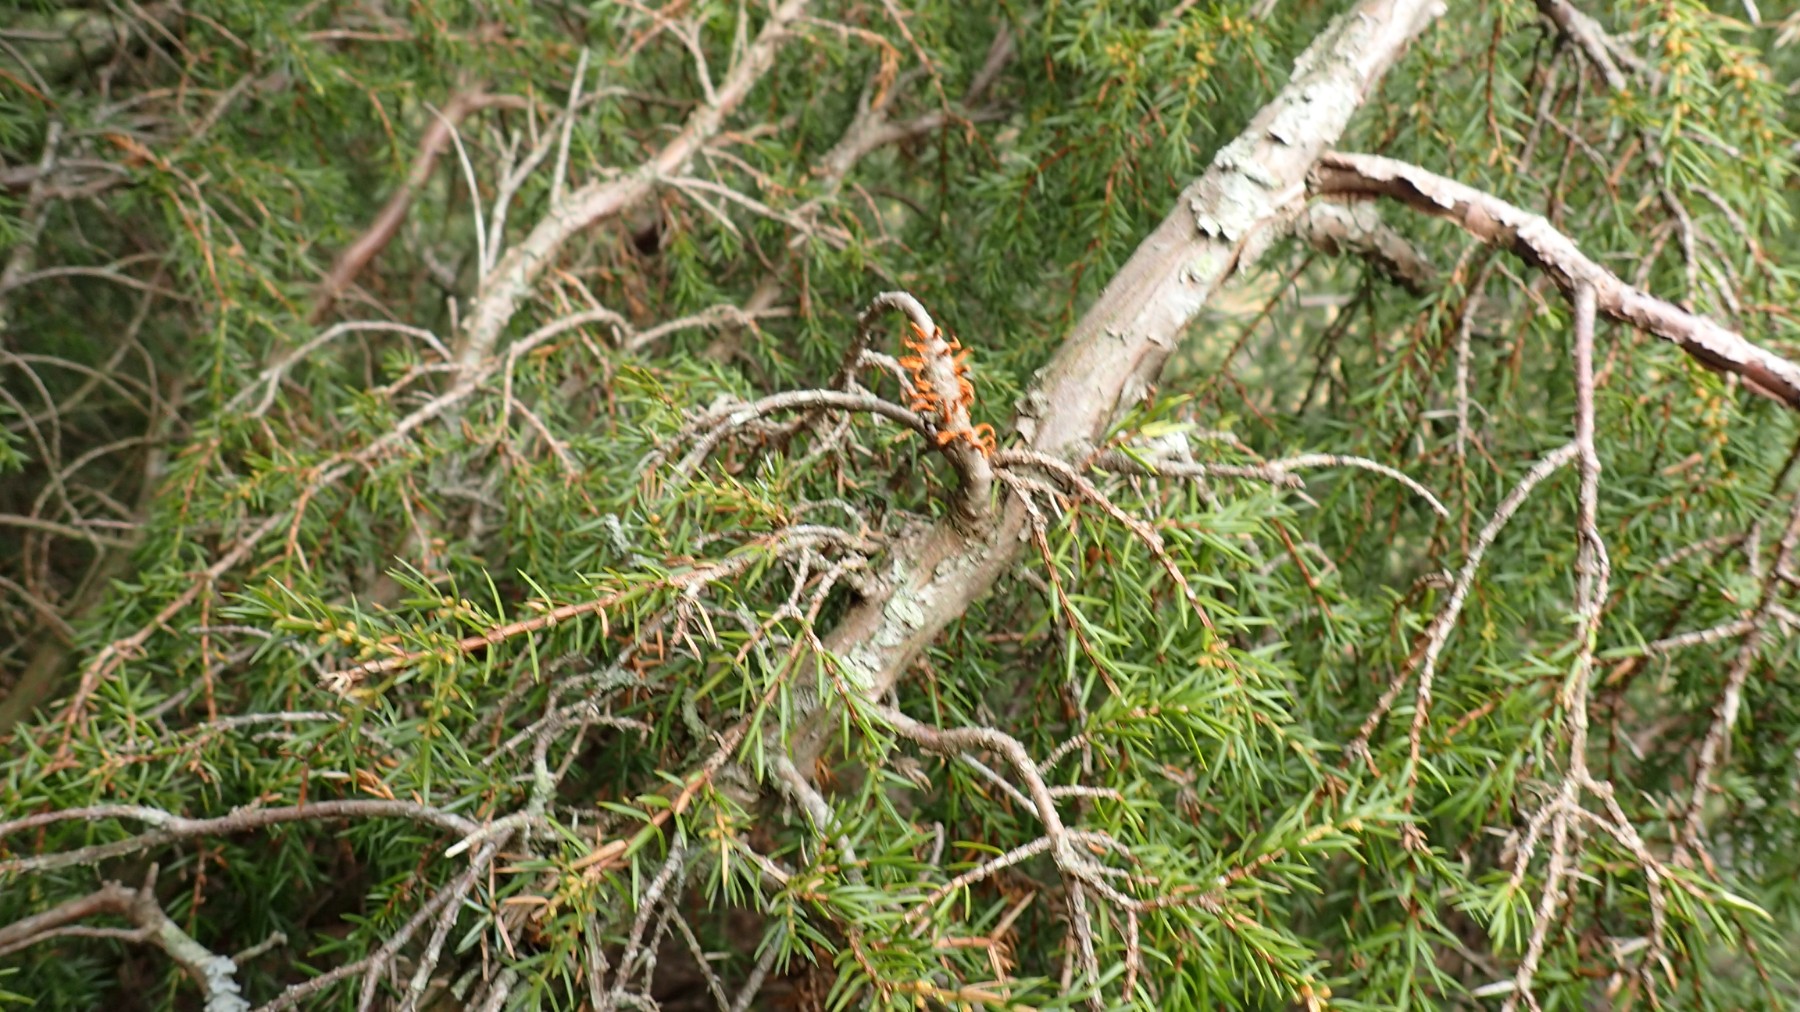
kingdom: Fungi
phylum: Basidiomycota
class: Pucciniomycetes
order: Pucciniales
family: Gymnosporangiaceae
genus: Gymnosporangium
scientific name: Gymnosporangium clavariiforme
